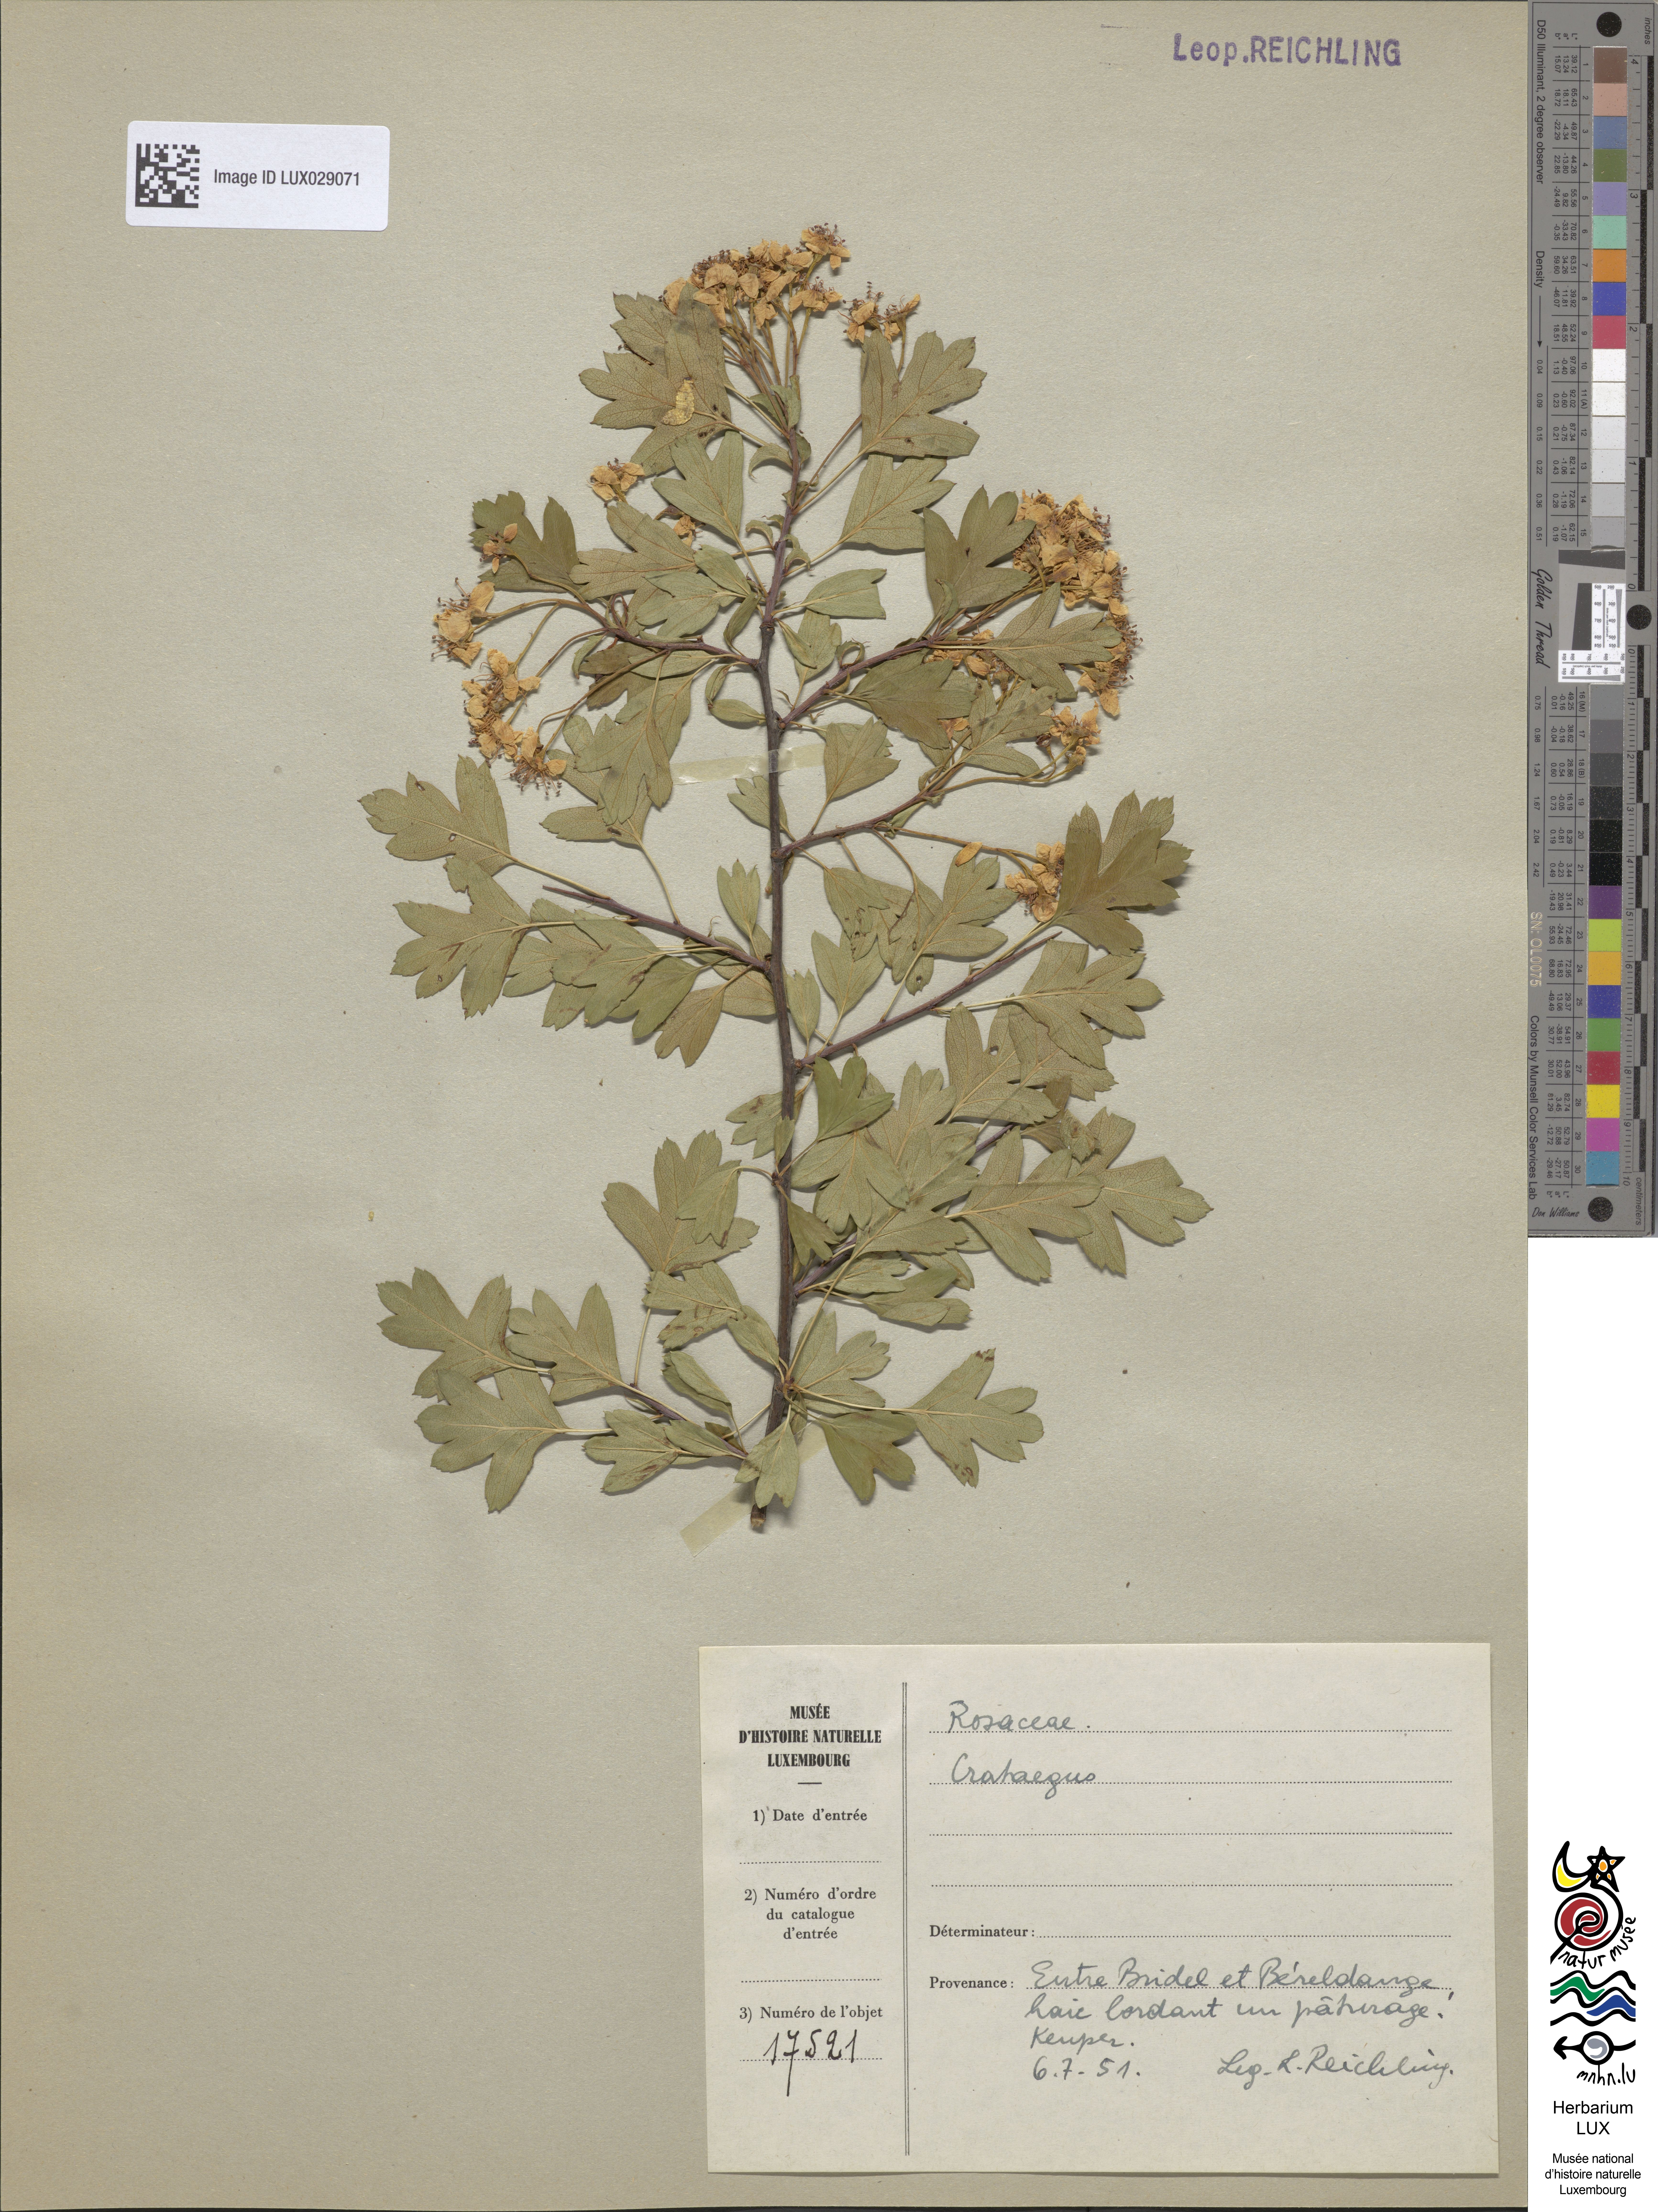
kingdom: Plantae
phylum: Tracheophyta
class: Magnoliopsida
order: Rosales
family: Rosaceae
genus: Crataegus
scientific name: Crataegus
